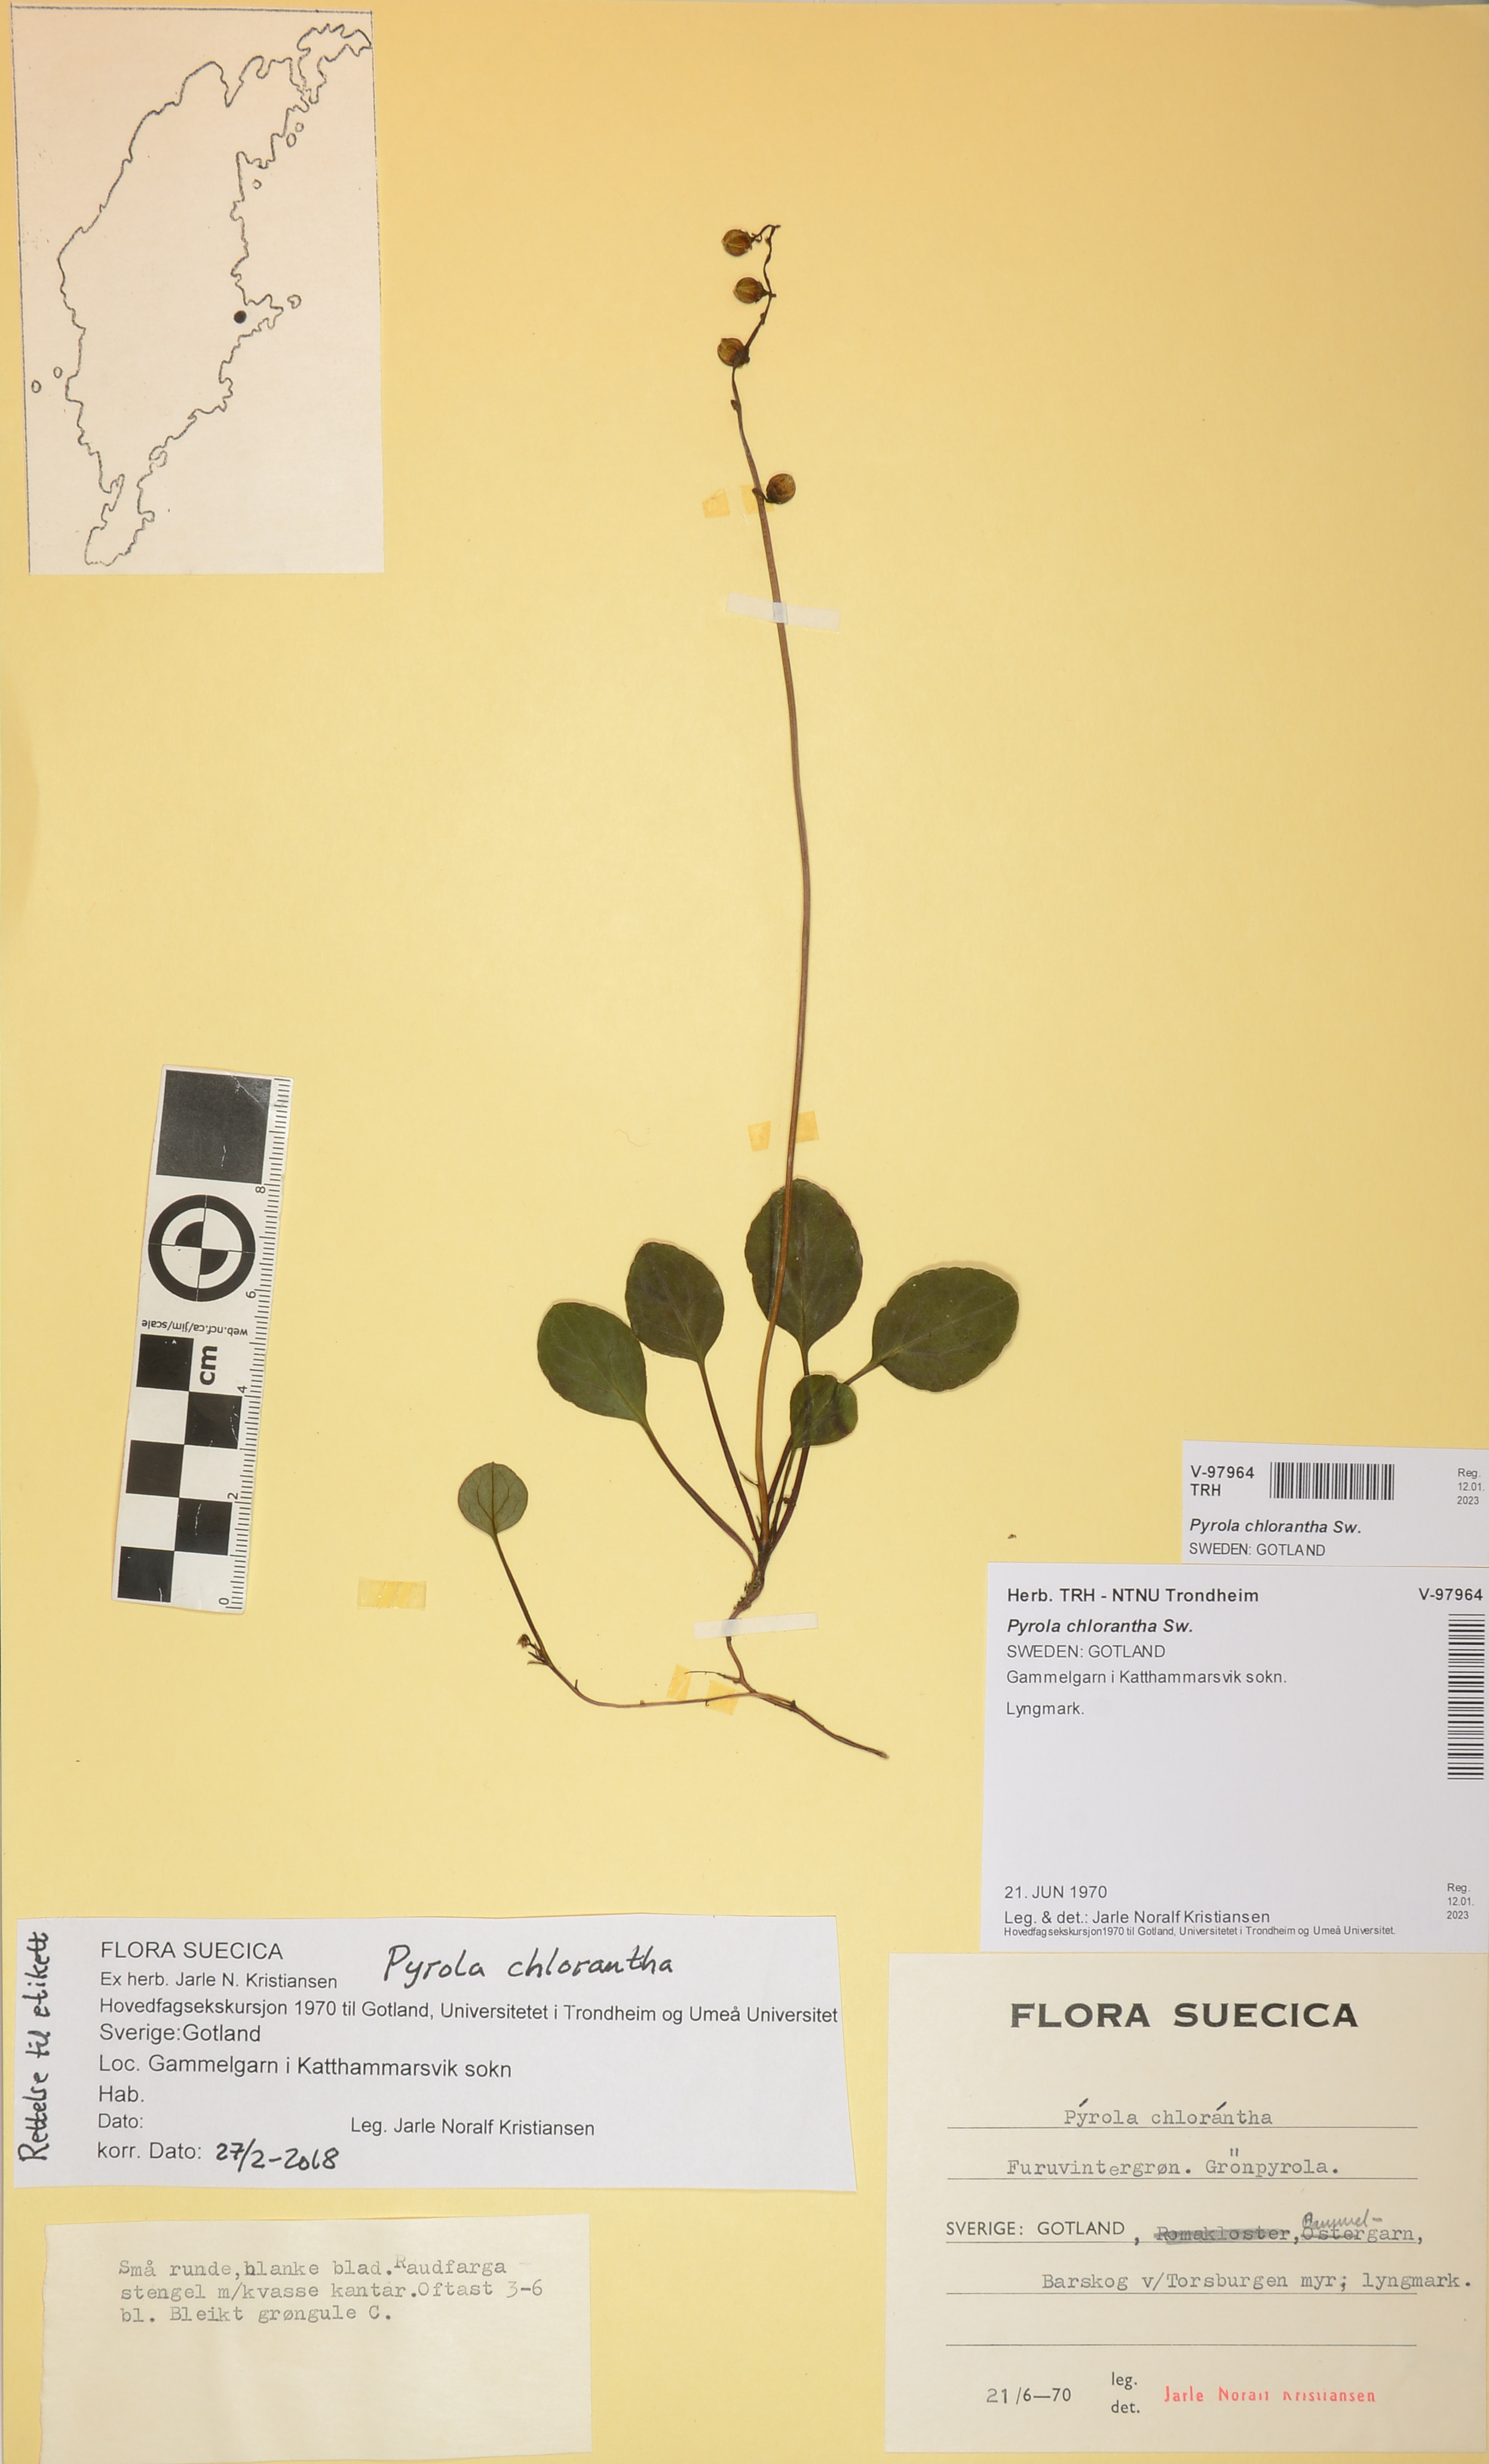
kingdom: Plantae
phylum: Tracheophyta
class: Magnoliopsida
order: Ericales
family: Ericaceae
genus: Pyrola
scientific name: Pyrola chlorantha
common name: Green wintergreen
